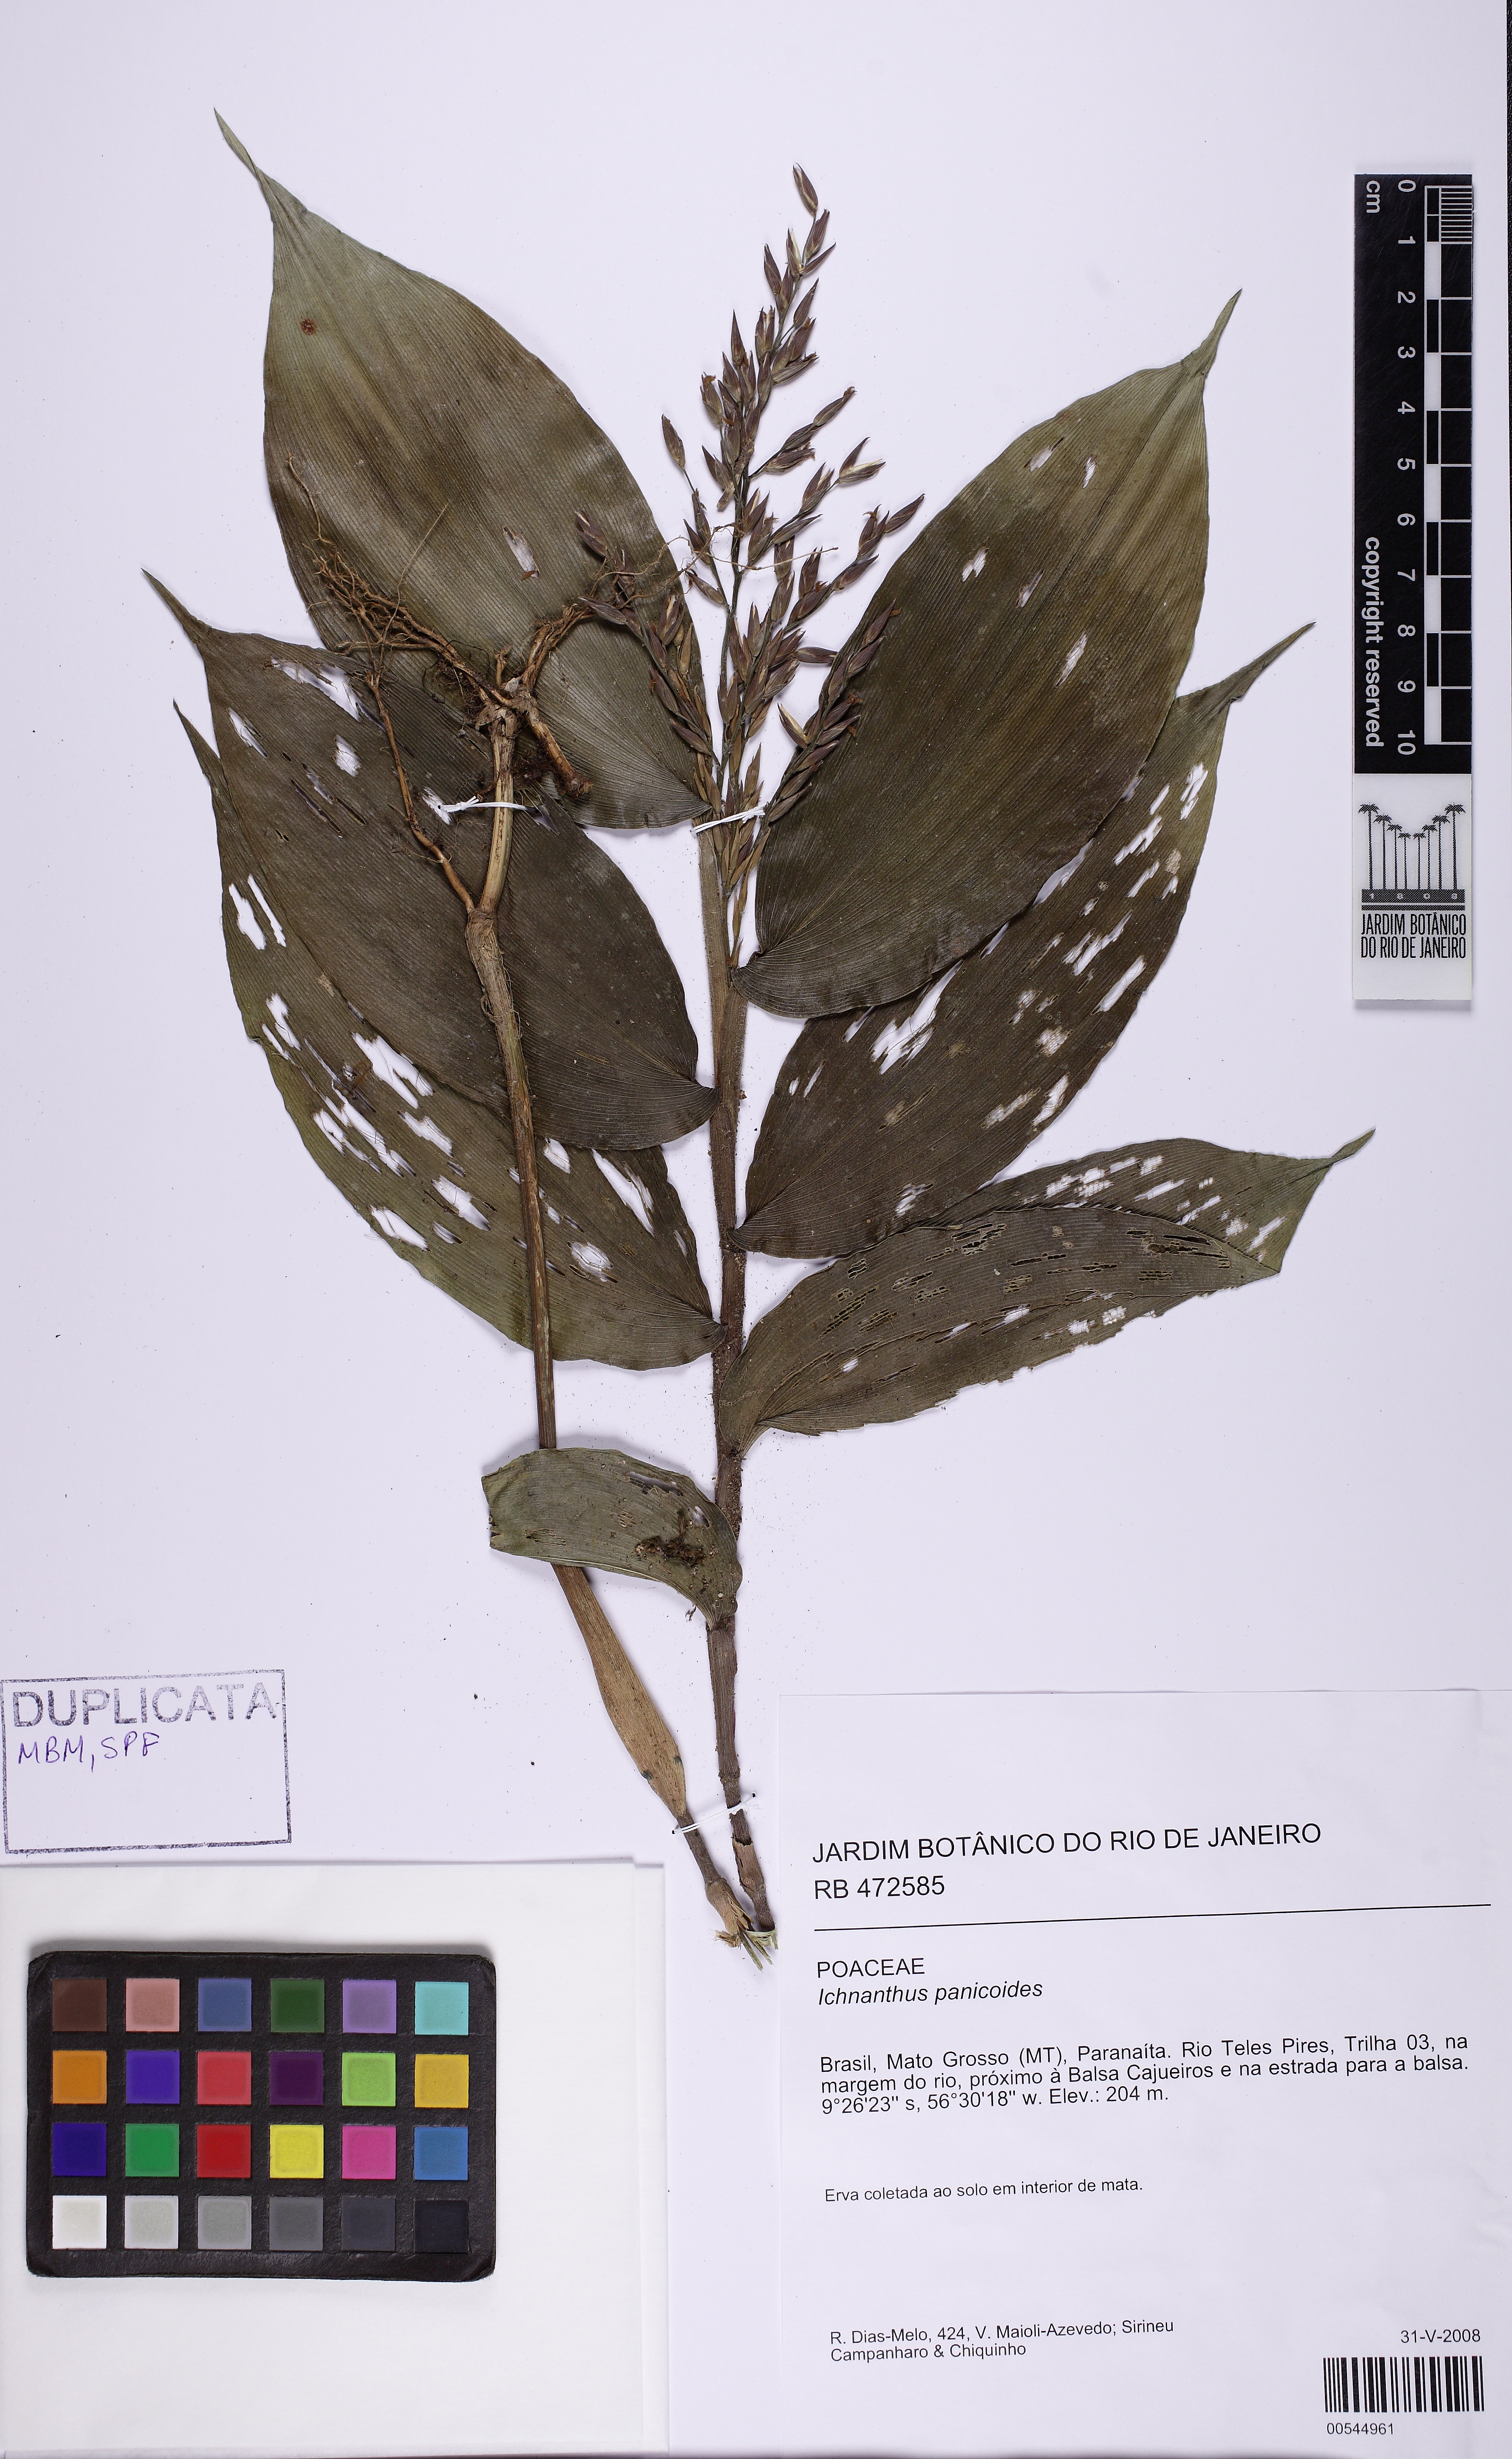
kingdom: Plantae
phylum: Tracheophyta
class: Liliopsida
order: Poales
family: Poaceae
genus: Ichnanthus
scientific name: Ichnanthus panicoides
